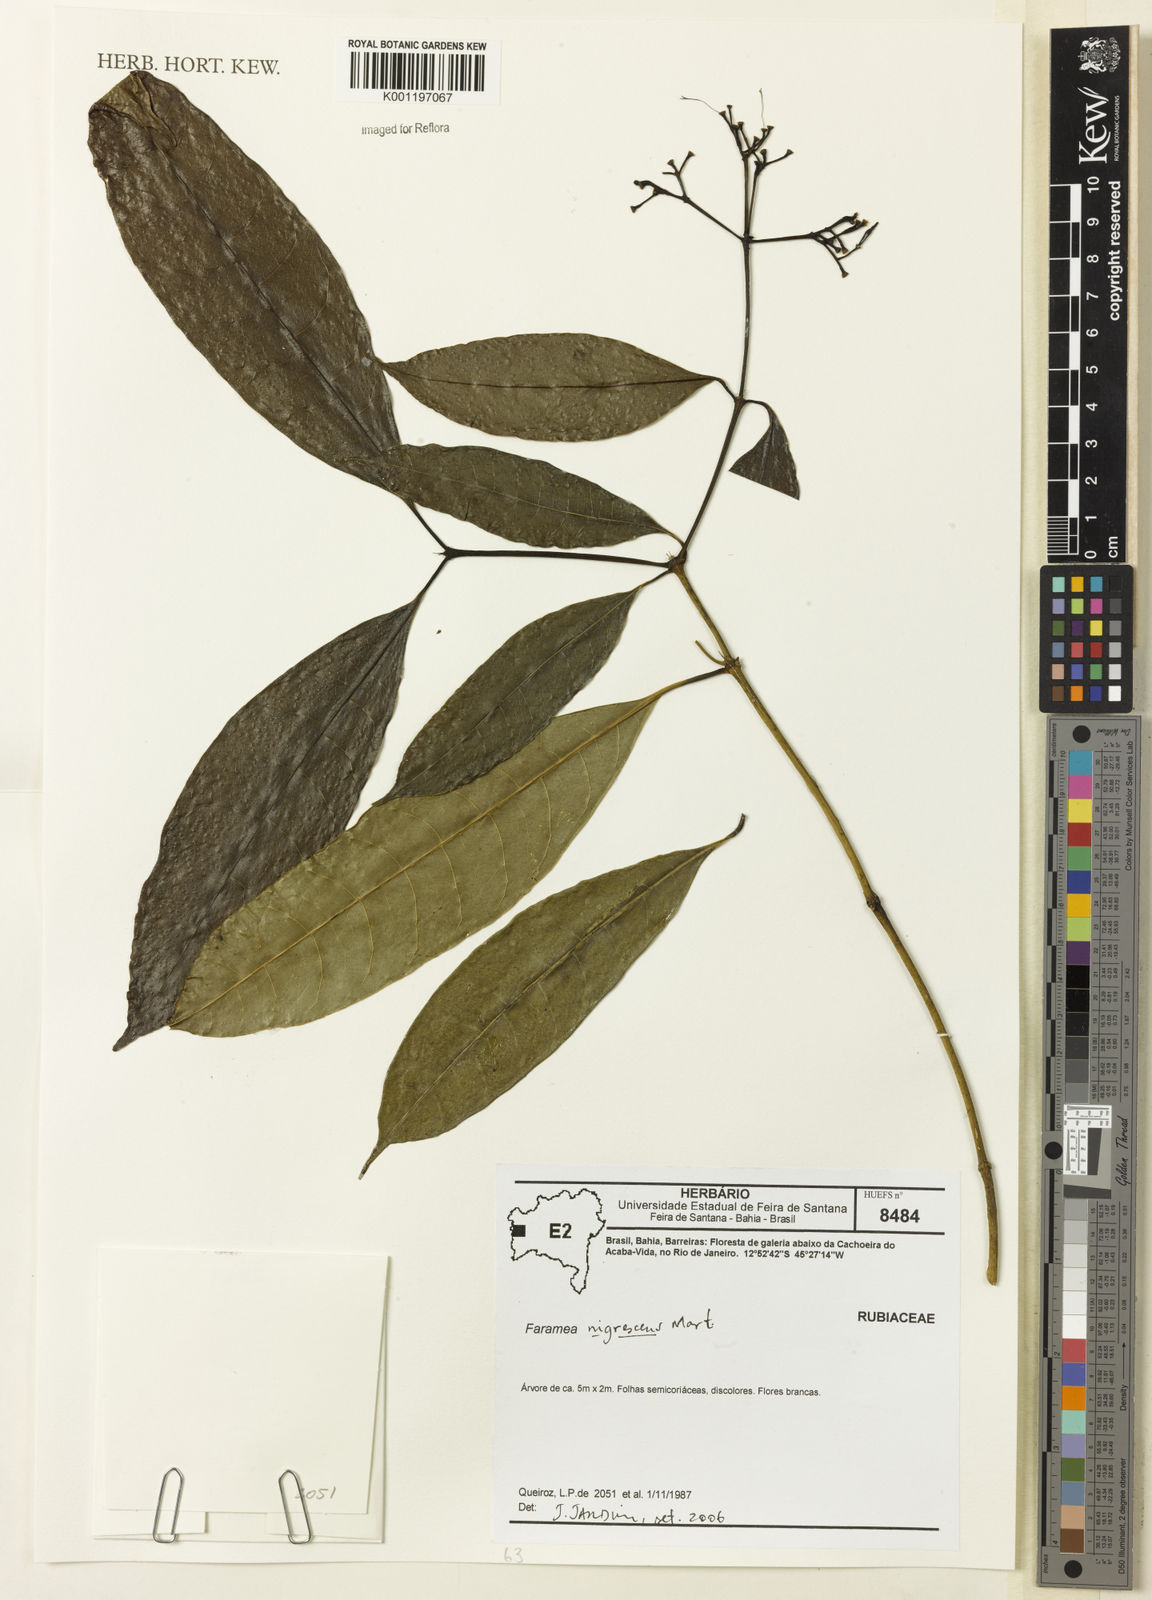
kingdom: Plantae
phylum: Tracheophyta
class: Magnoliopsida
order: Gentianales
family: Rubiaceae
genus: Faramea
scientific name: Faramea nigrescens
